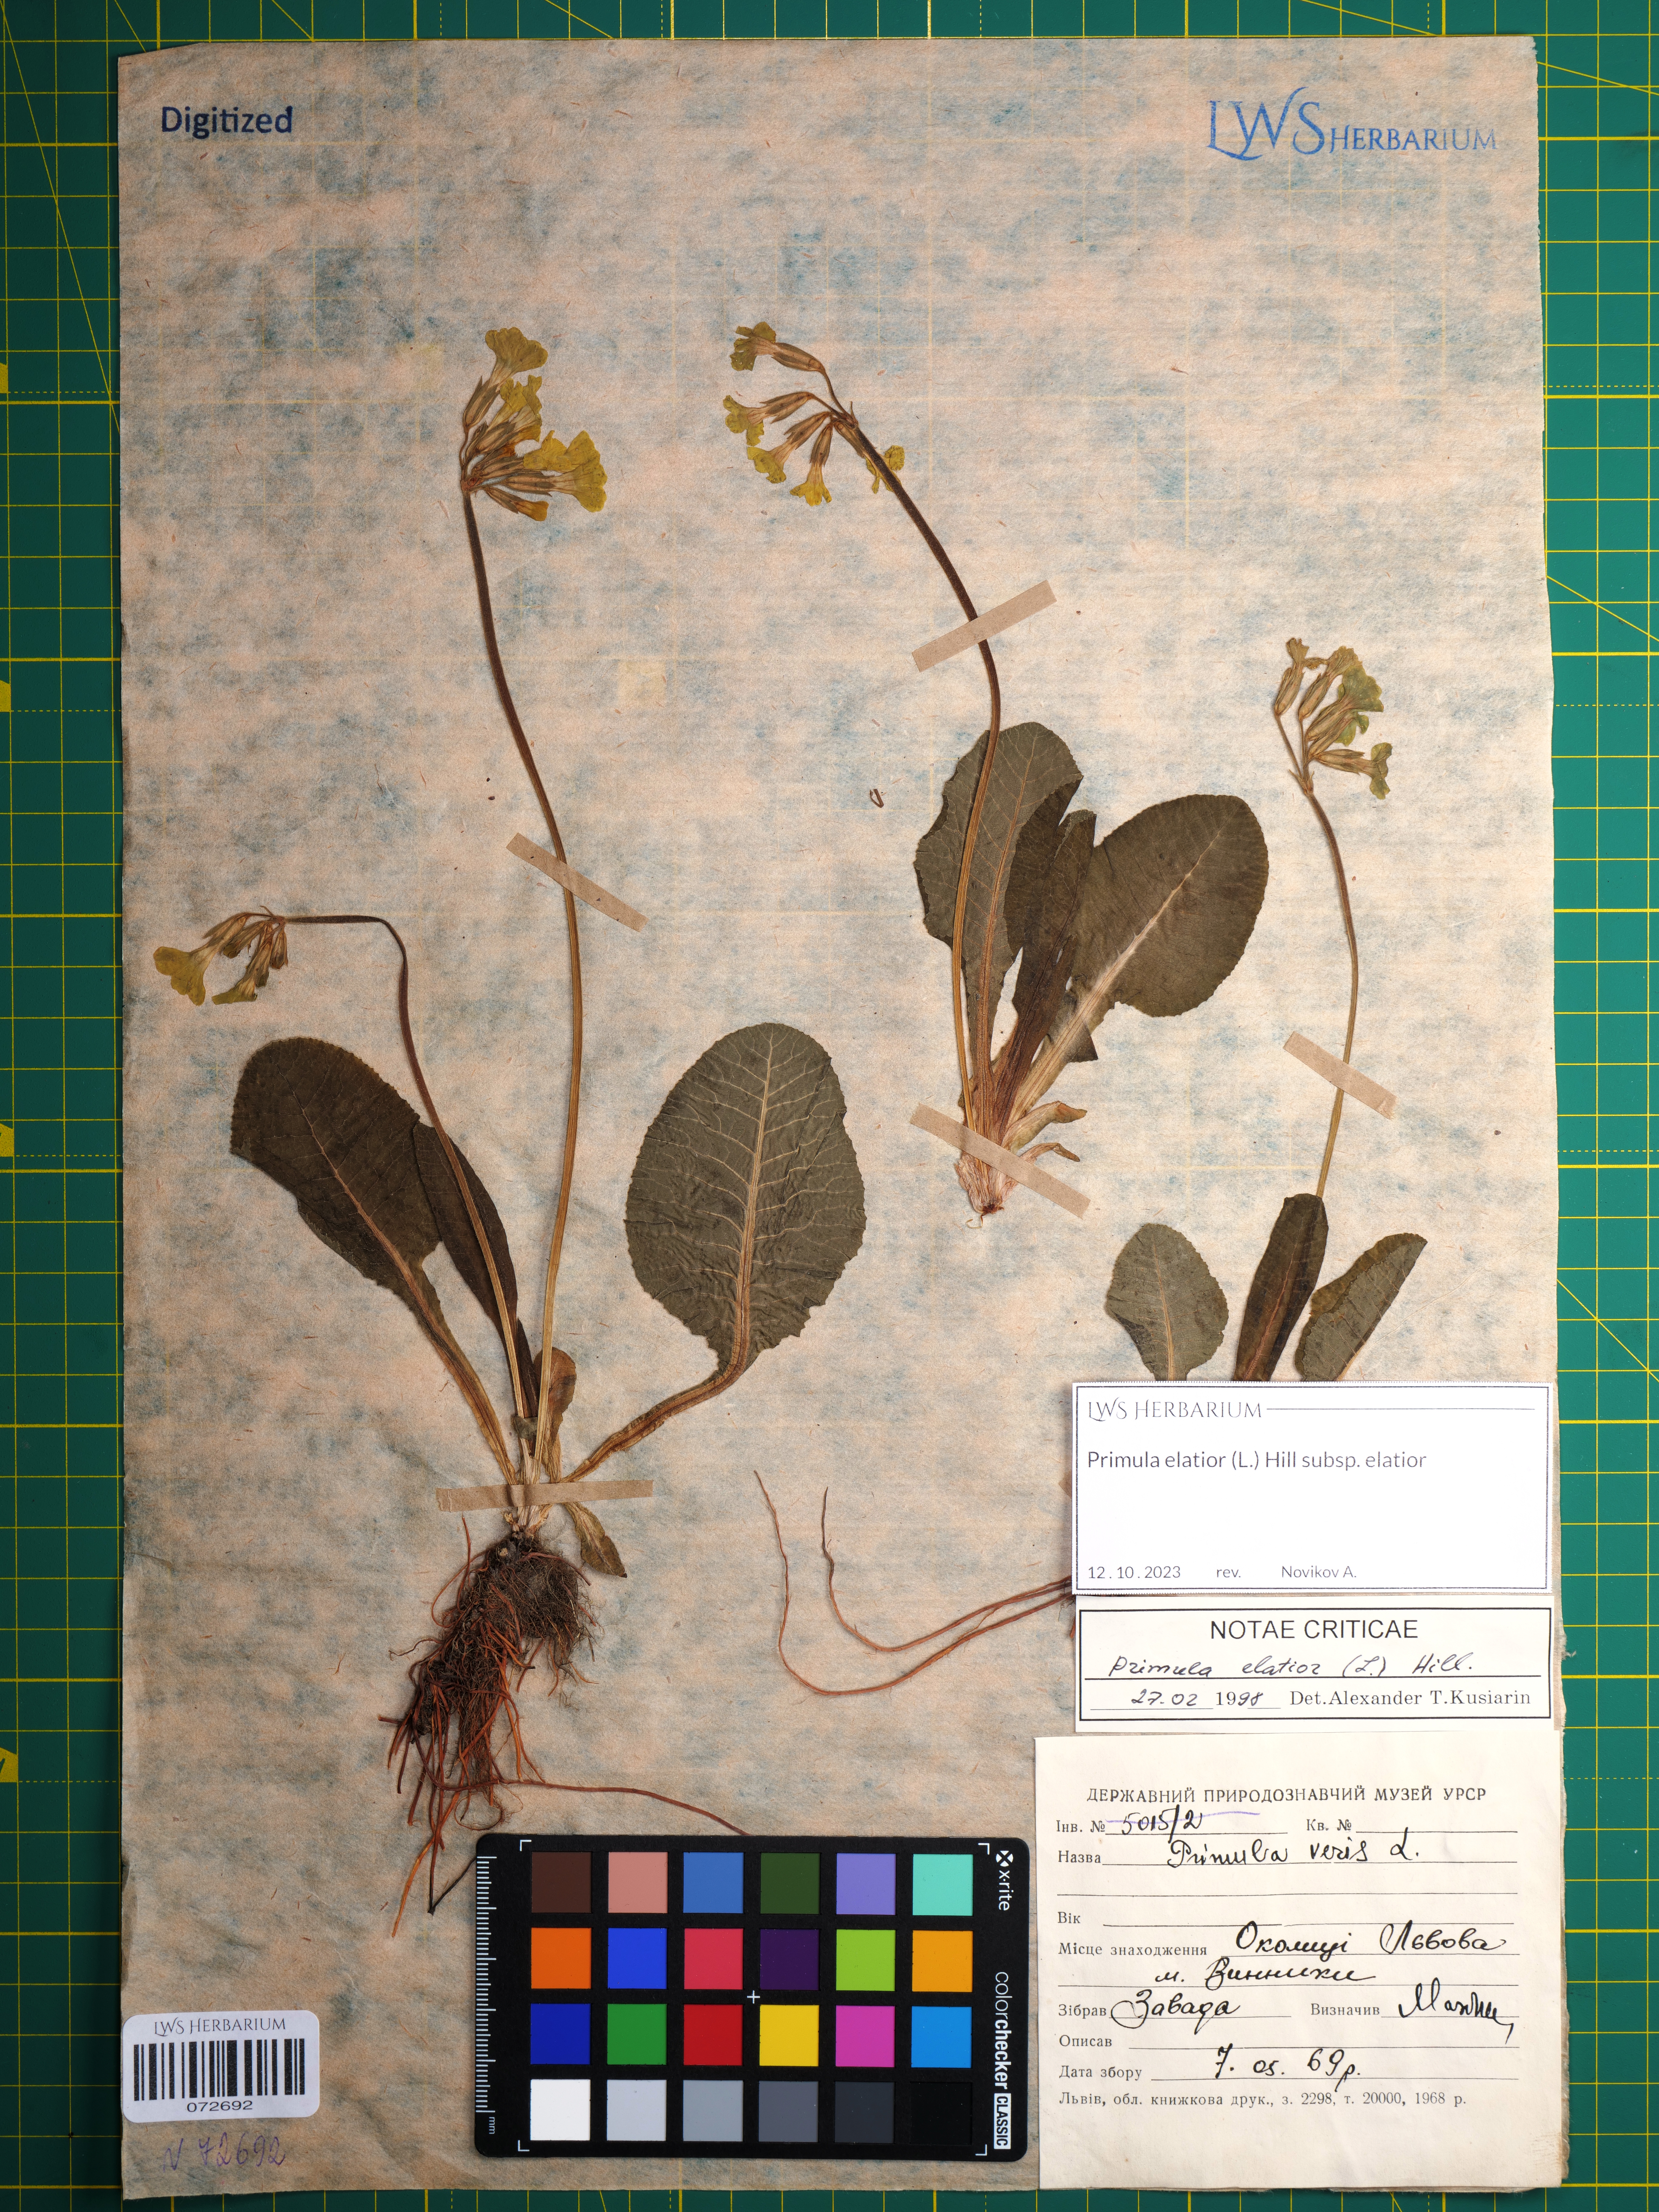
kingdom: Plantae
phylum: Tracheophyta
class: Magnoliopsida
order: Ericales
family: Primulaceae
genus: Primula
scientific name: Primula elatior
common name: Oxlip
